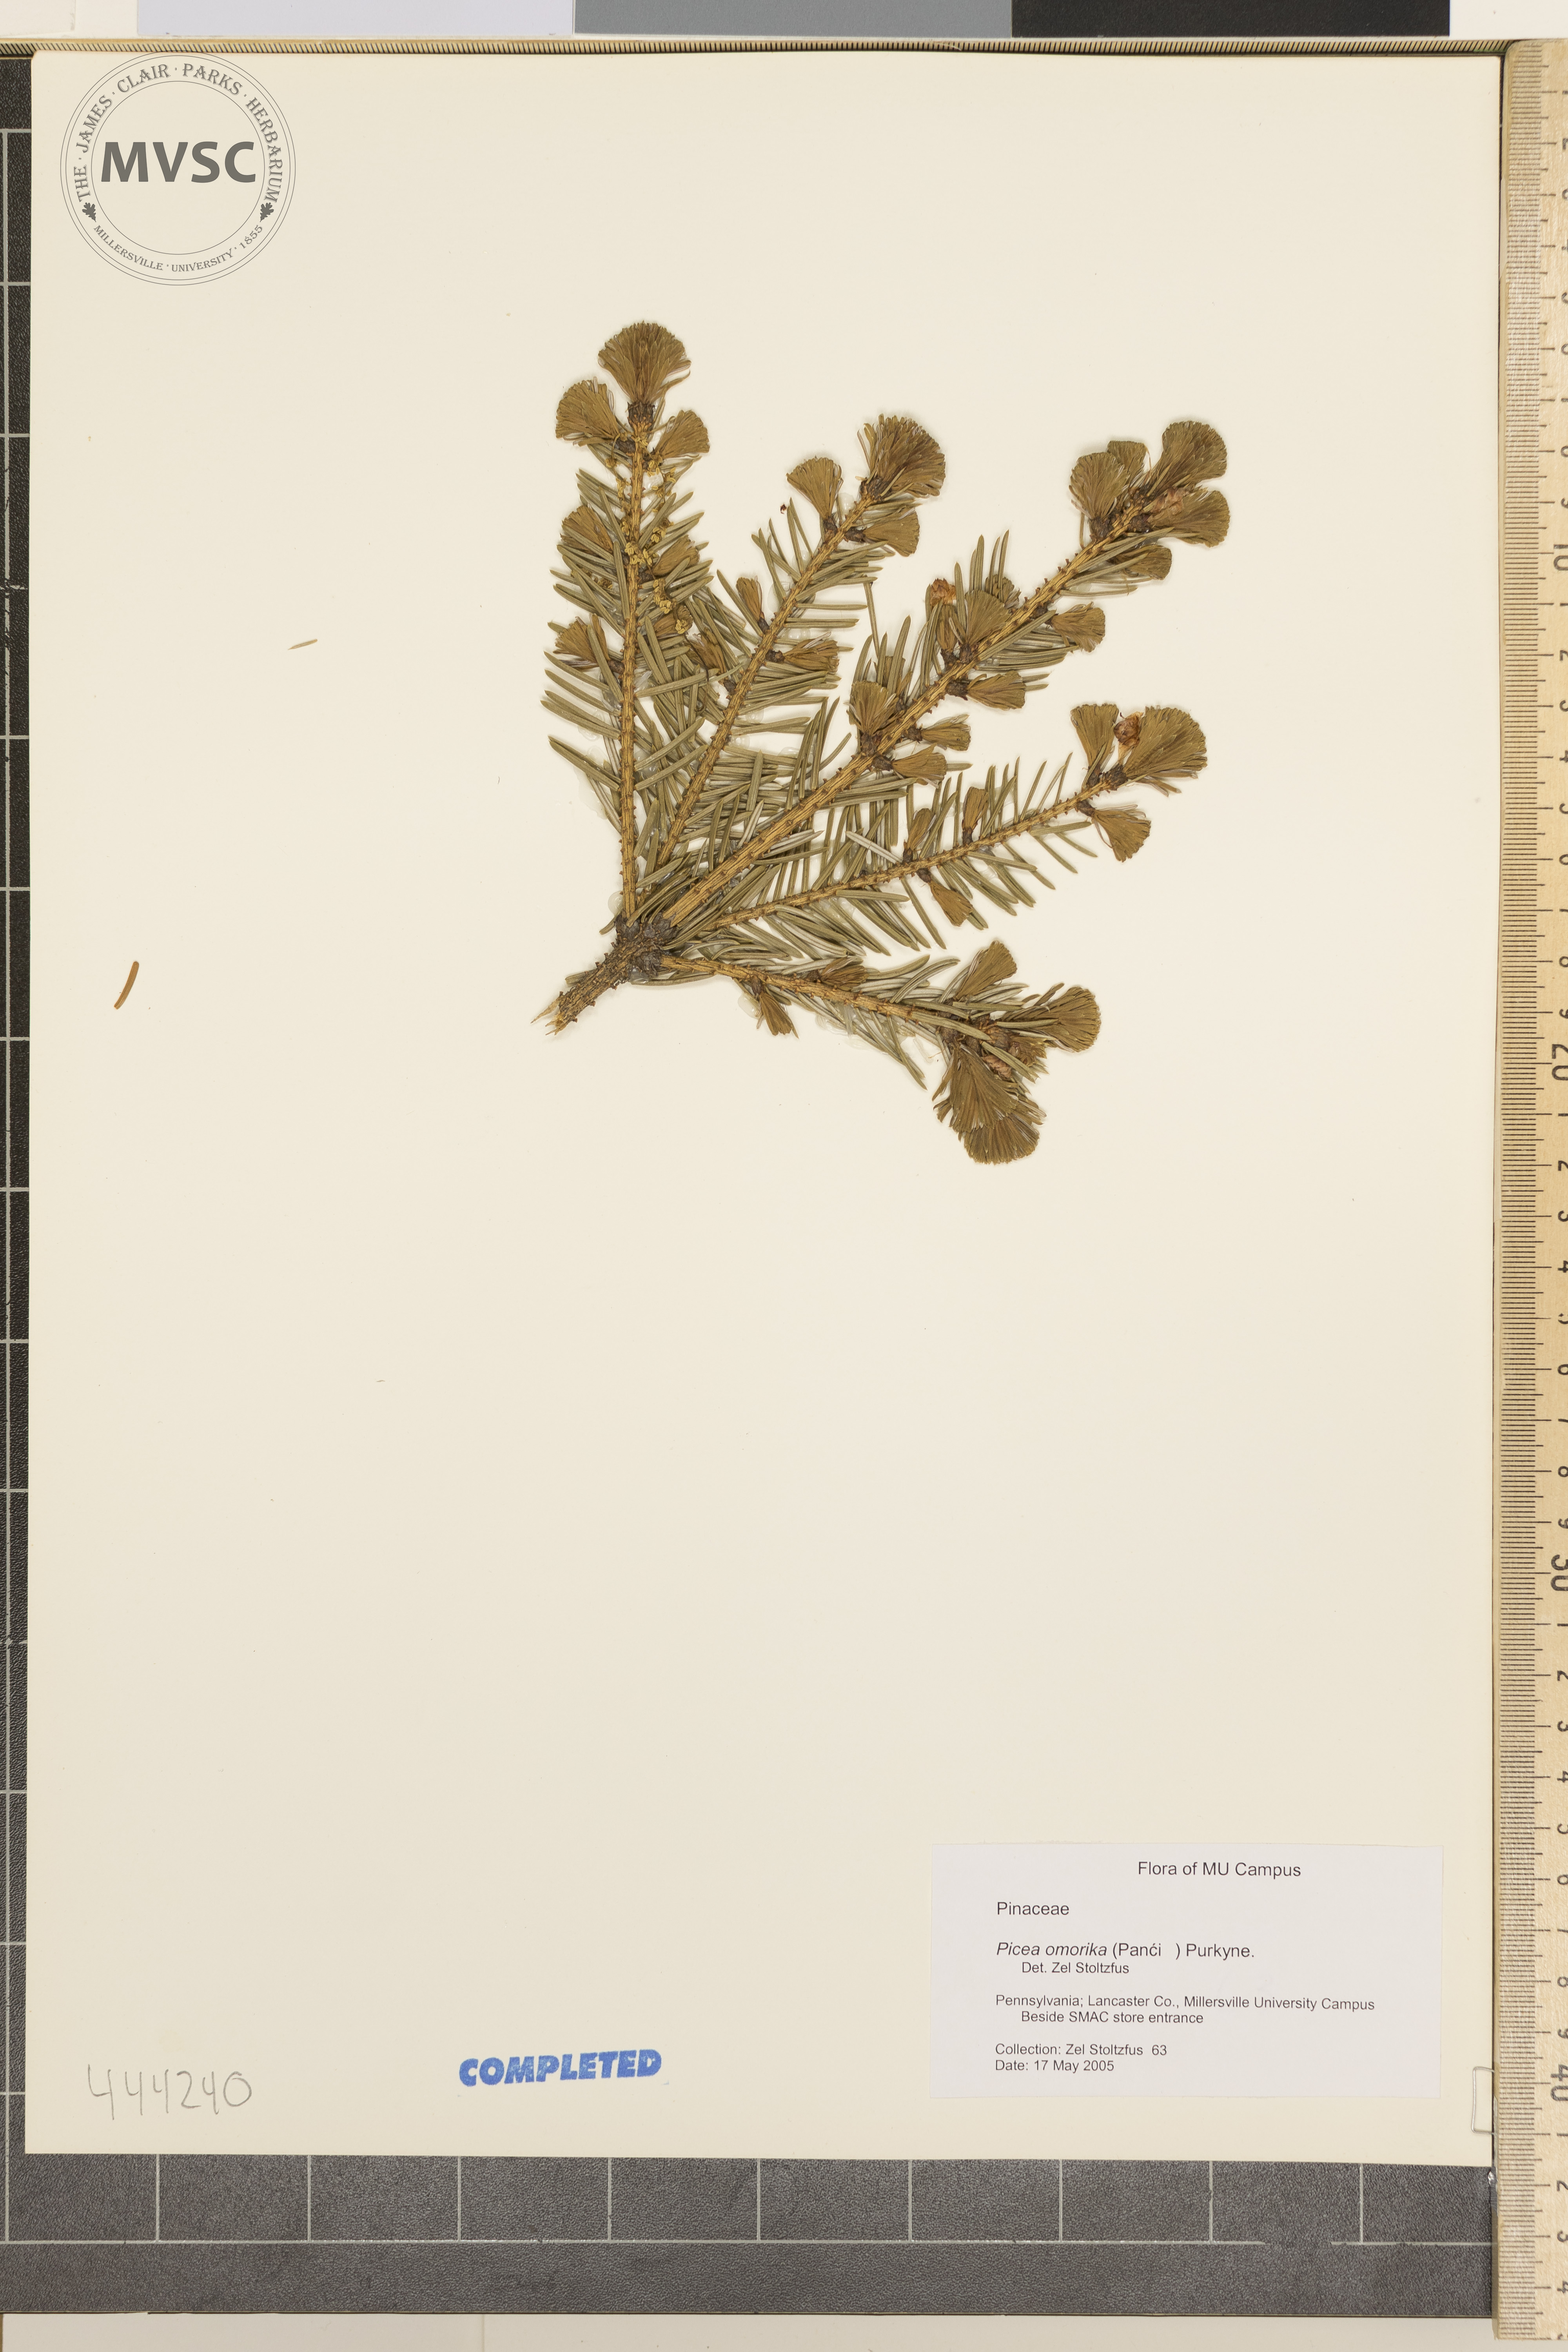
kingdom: Plantae
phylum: Tracheophyta
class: Pinopsida
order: Pinales
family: Pinaceae
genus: Picea
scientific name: Picea omorika
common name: Serbian spruce
